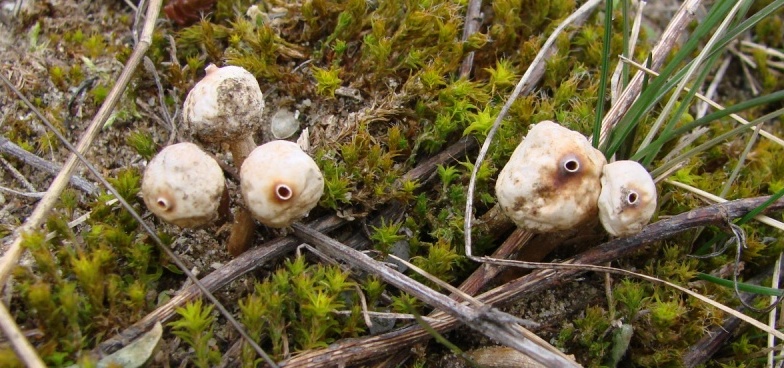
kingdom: Fungi
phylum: Basidiomycota
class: Agaricomycetes
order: Agaricales
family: Agaricaceae
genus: Tulostoma
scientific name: Tulostoma brumale
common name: vinter-stilkbovist
